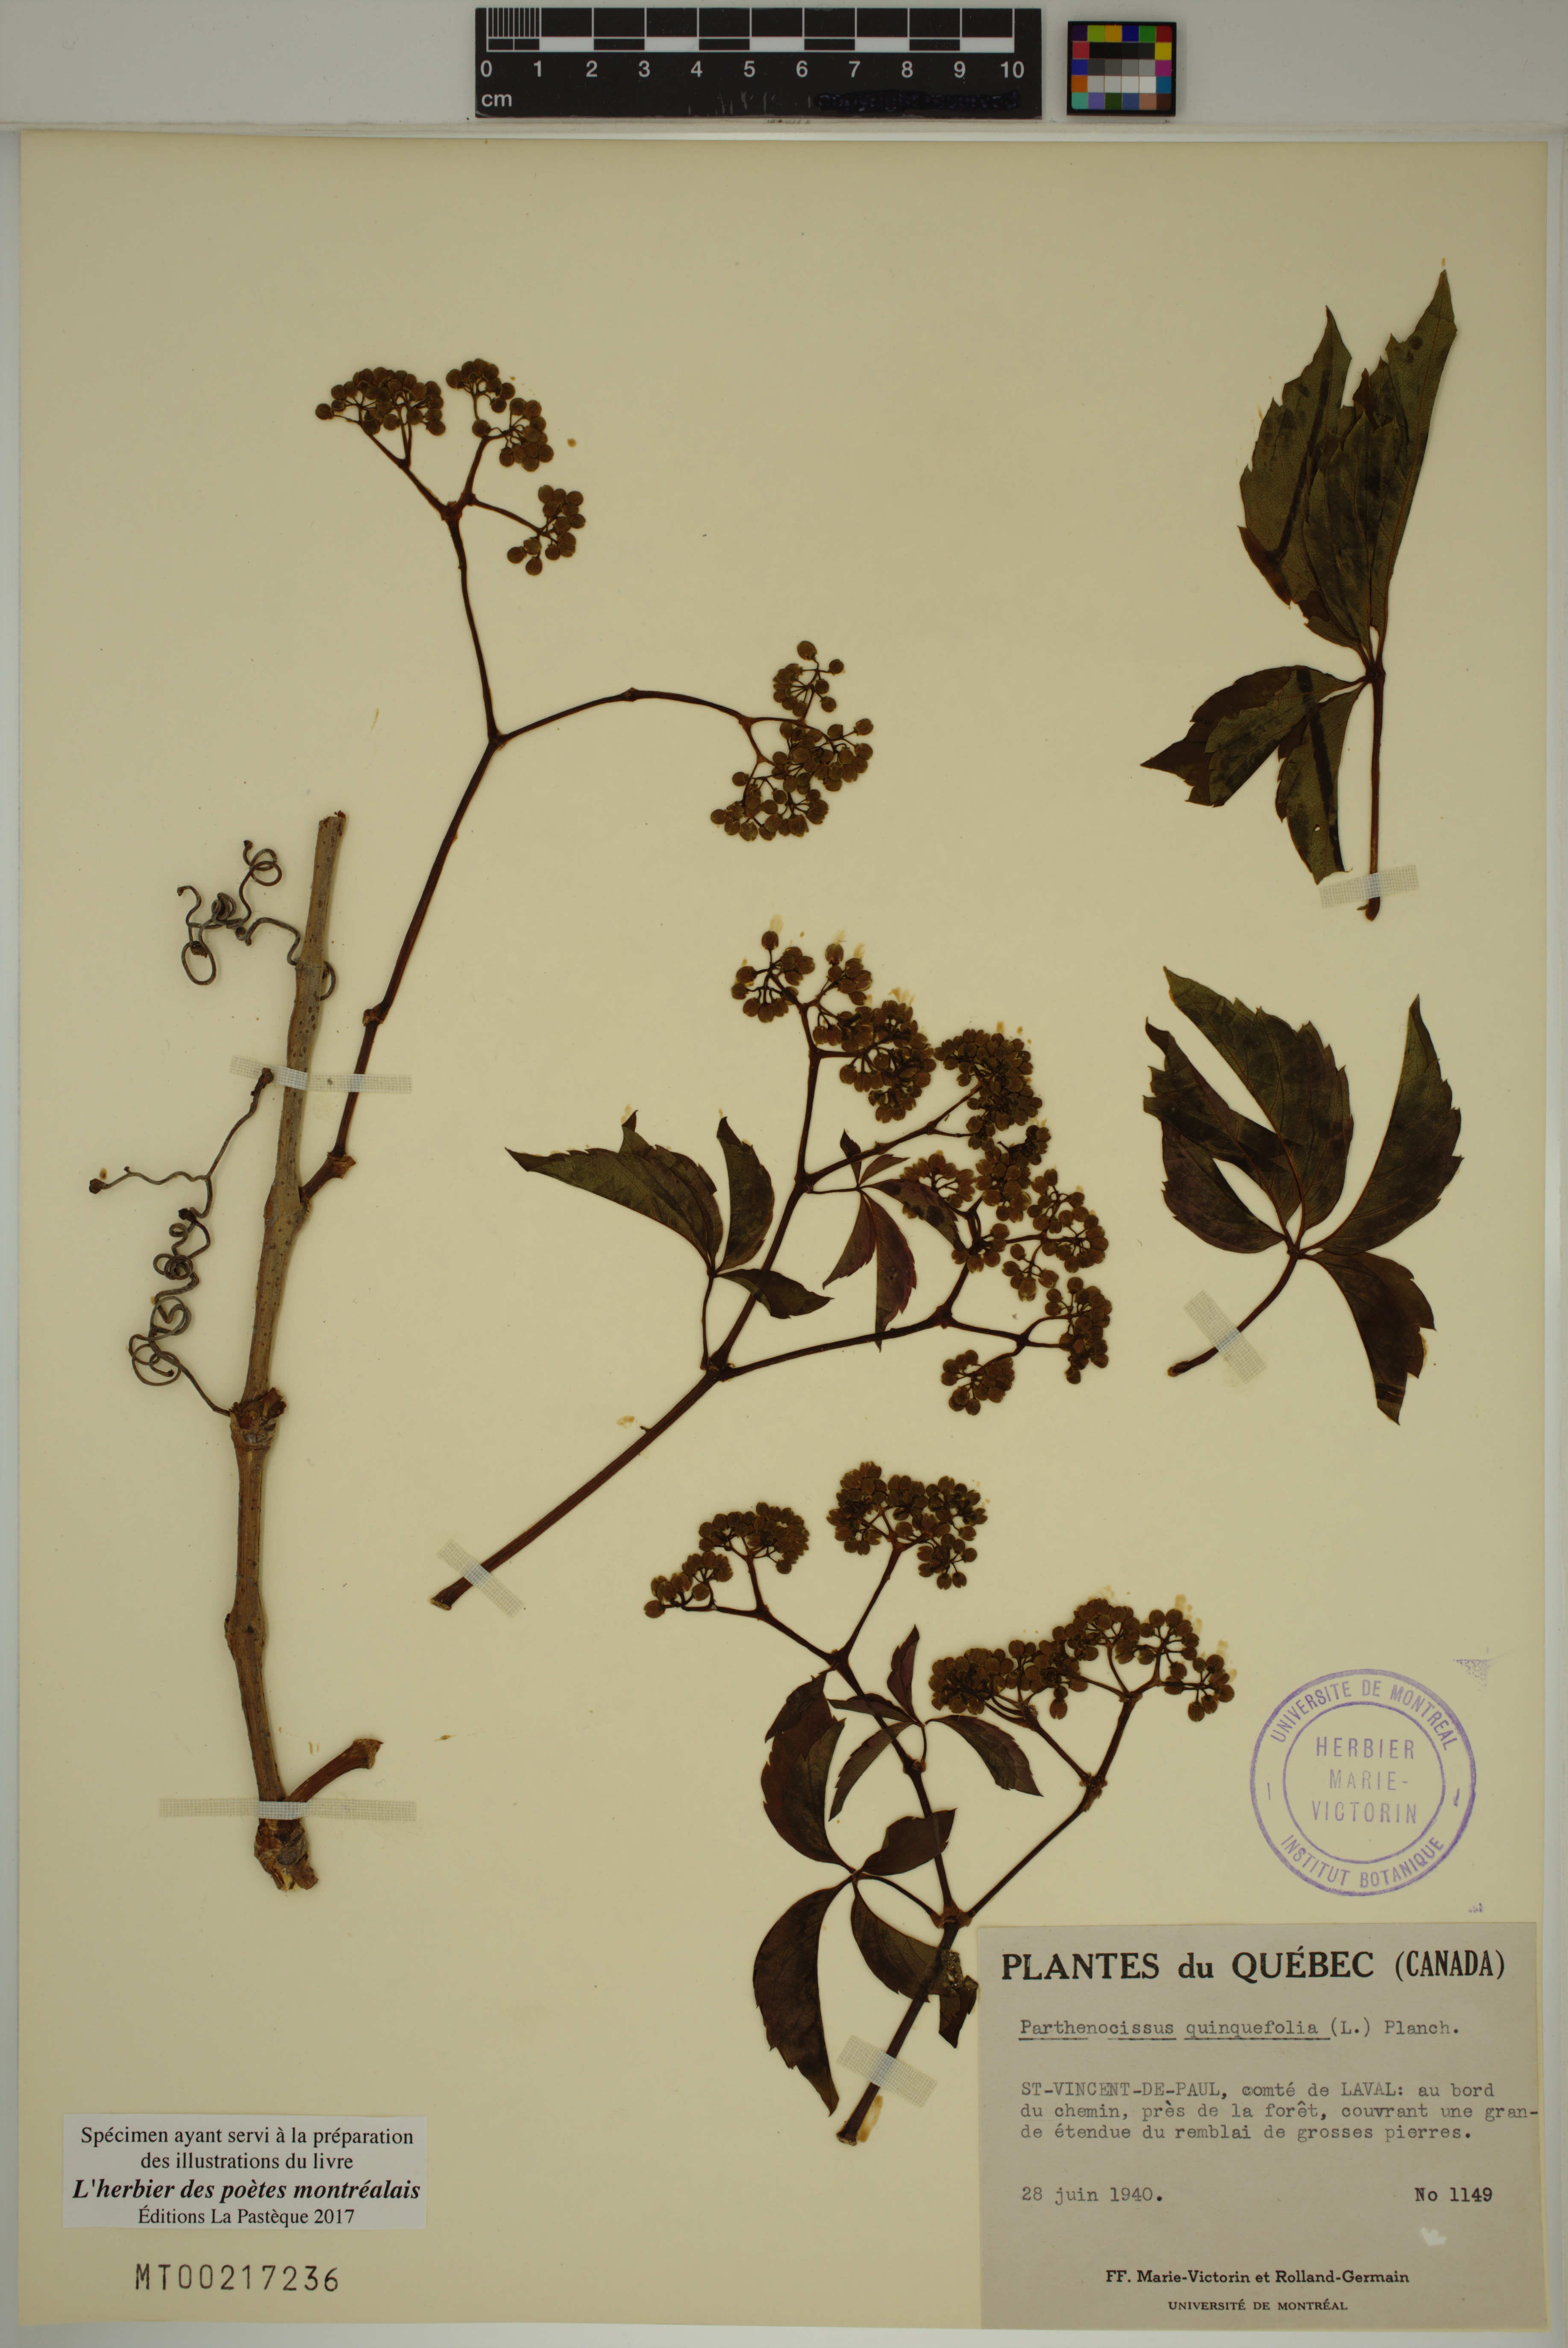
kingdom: Plantae
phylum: Tracheophyta
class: Magnoliopsida
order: Vitales
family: Vitaceae
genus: Parthenocissus
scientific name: Parthenocissus quinquefolia
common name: Virginia-creeper
